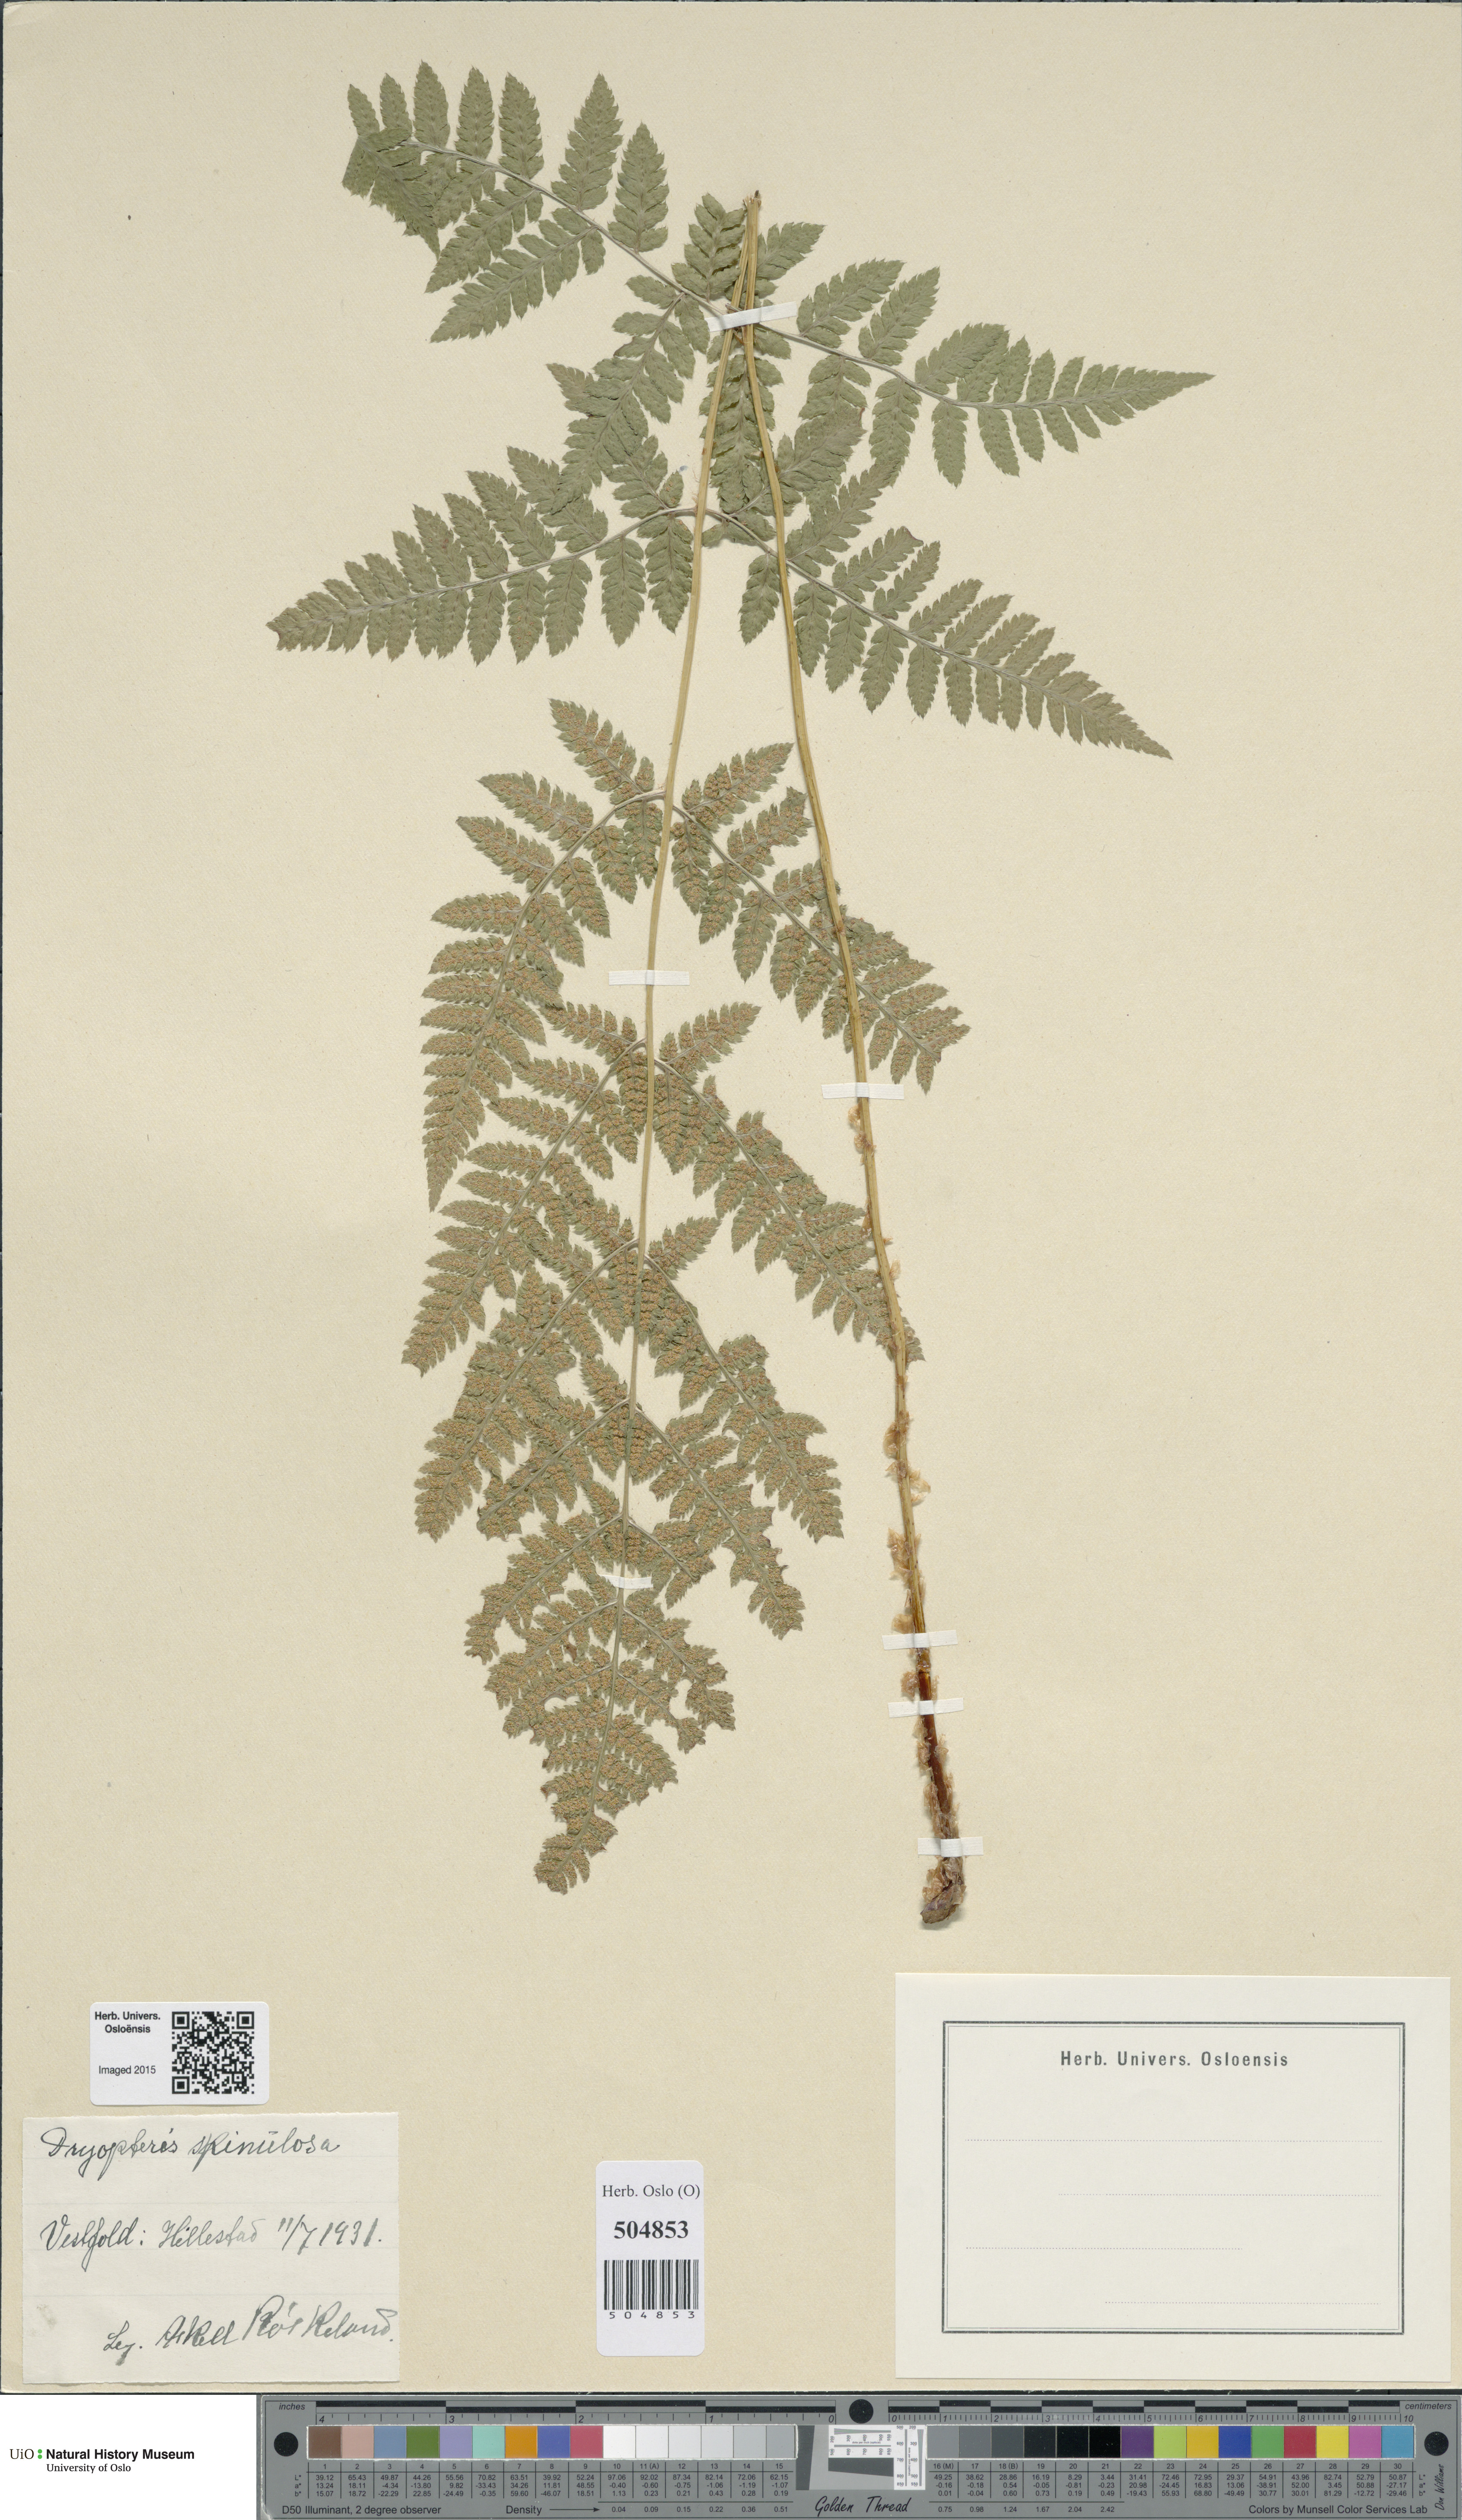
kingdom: Plantae
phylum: Tracheophyta
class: Polypodiopsida
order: Polypodiales
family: Dryopteridaceae
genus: Dryopteris
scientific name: Dryopteris carthusiana
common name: Narrow buckler-fern
